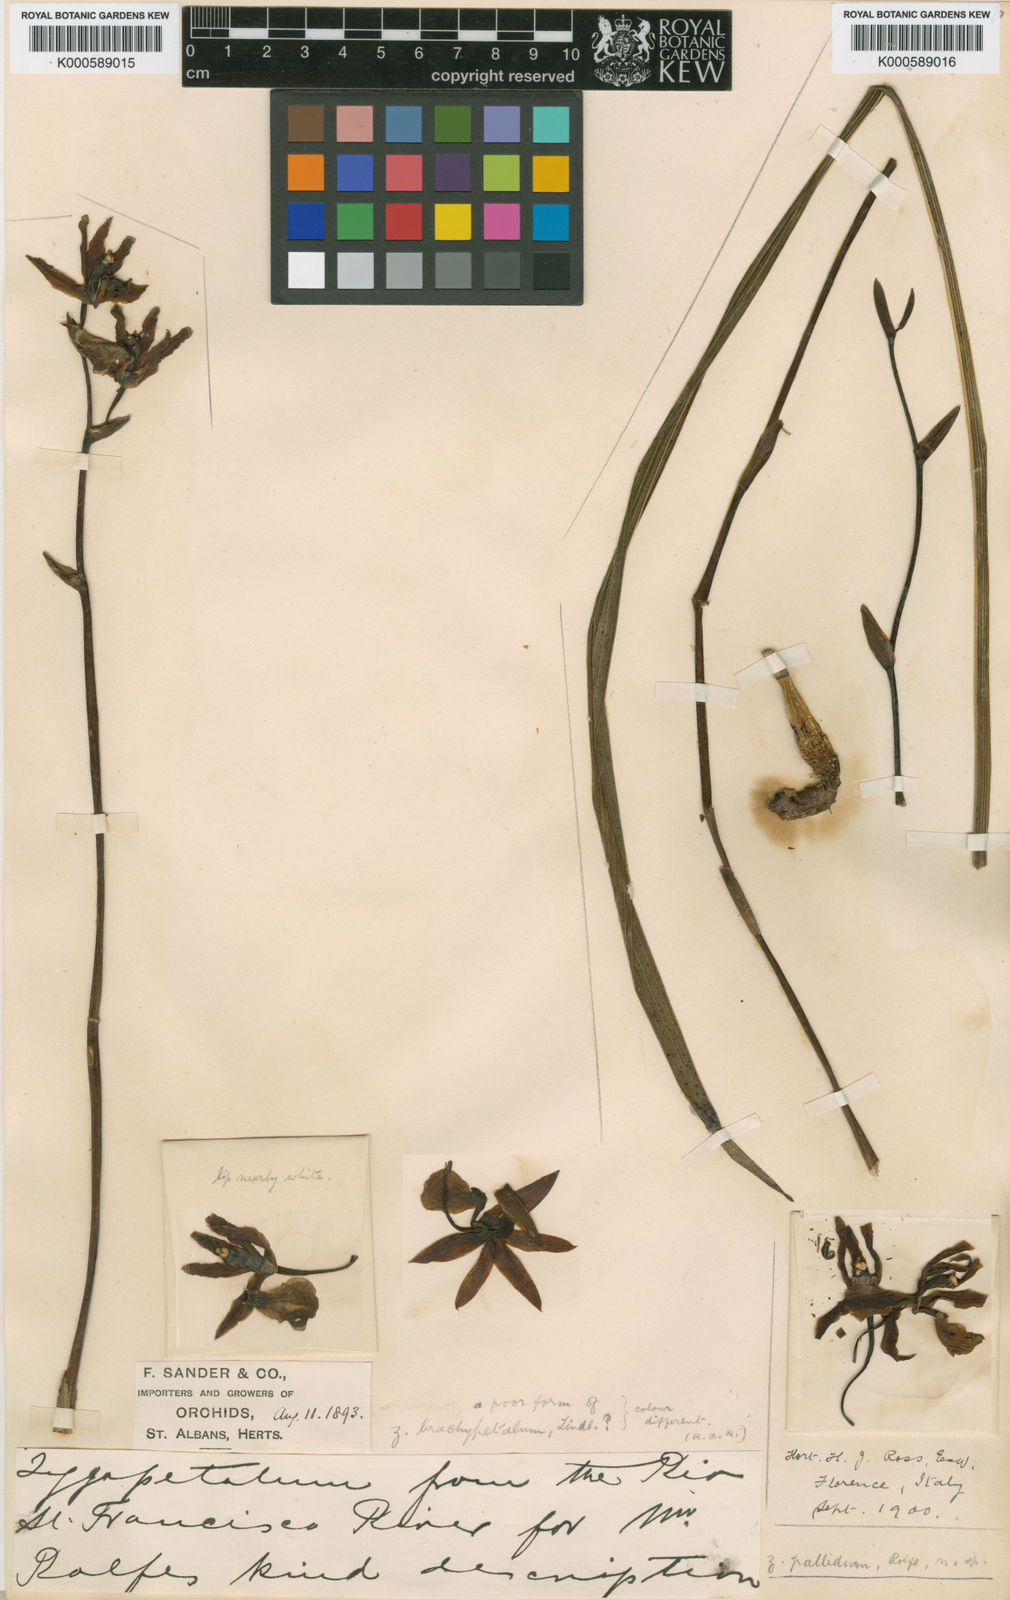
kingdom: Plantae
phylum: Tracheophyta
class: Liliopsida
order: Asparagales
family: Orchidaceae
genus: Zygopetalum
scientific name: Zygopetalum
